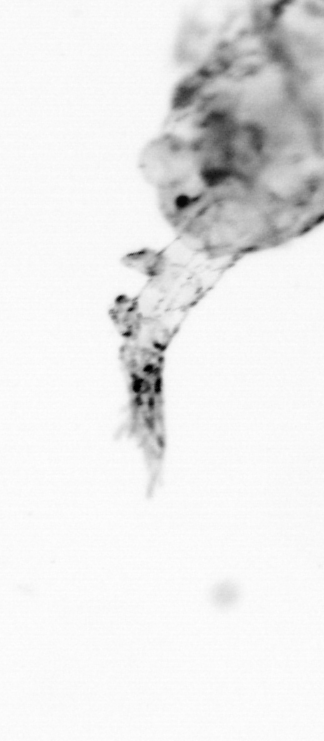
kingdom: Animalia
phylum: Arthropoda
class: Copepoda
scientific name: Copepoda
